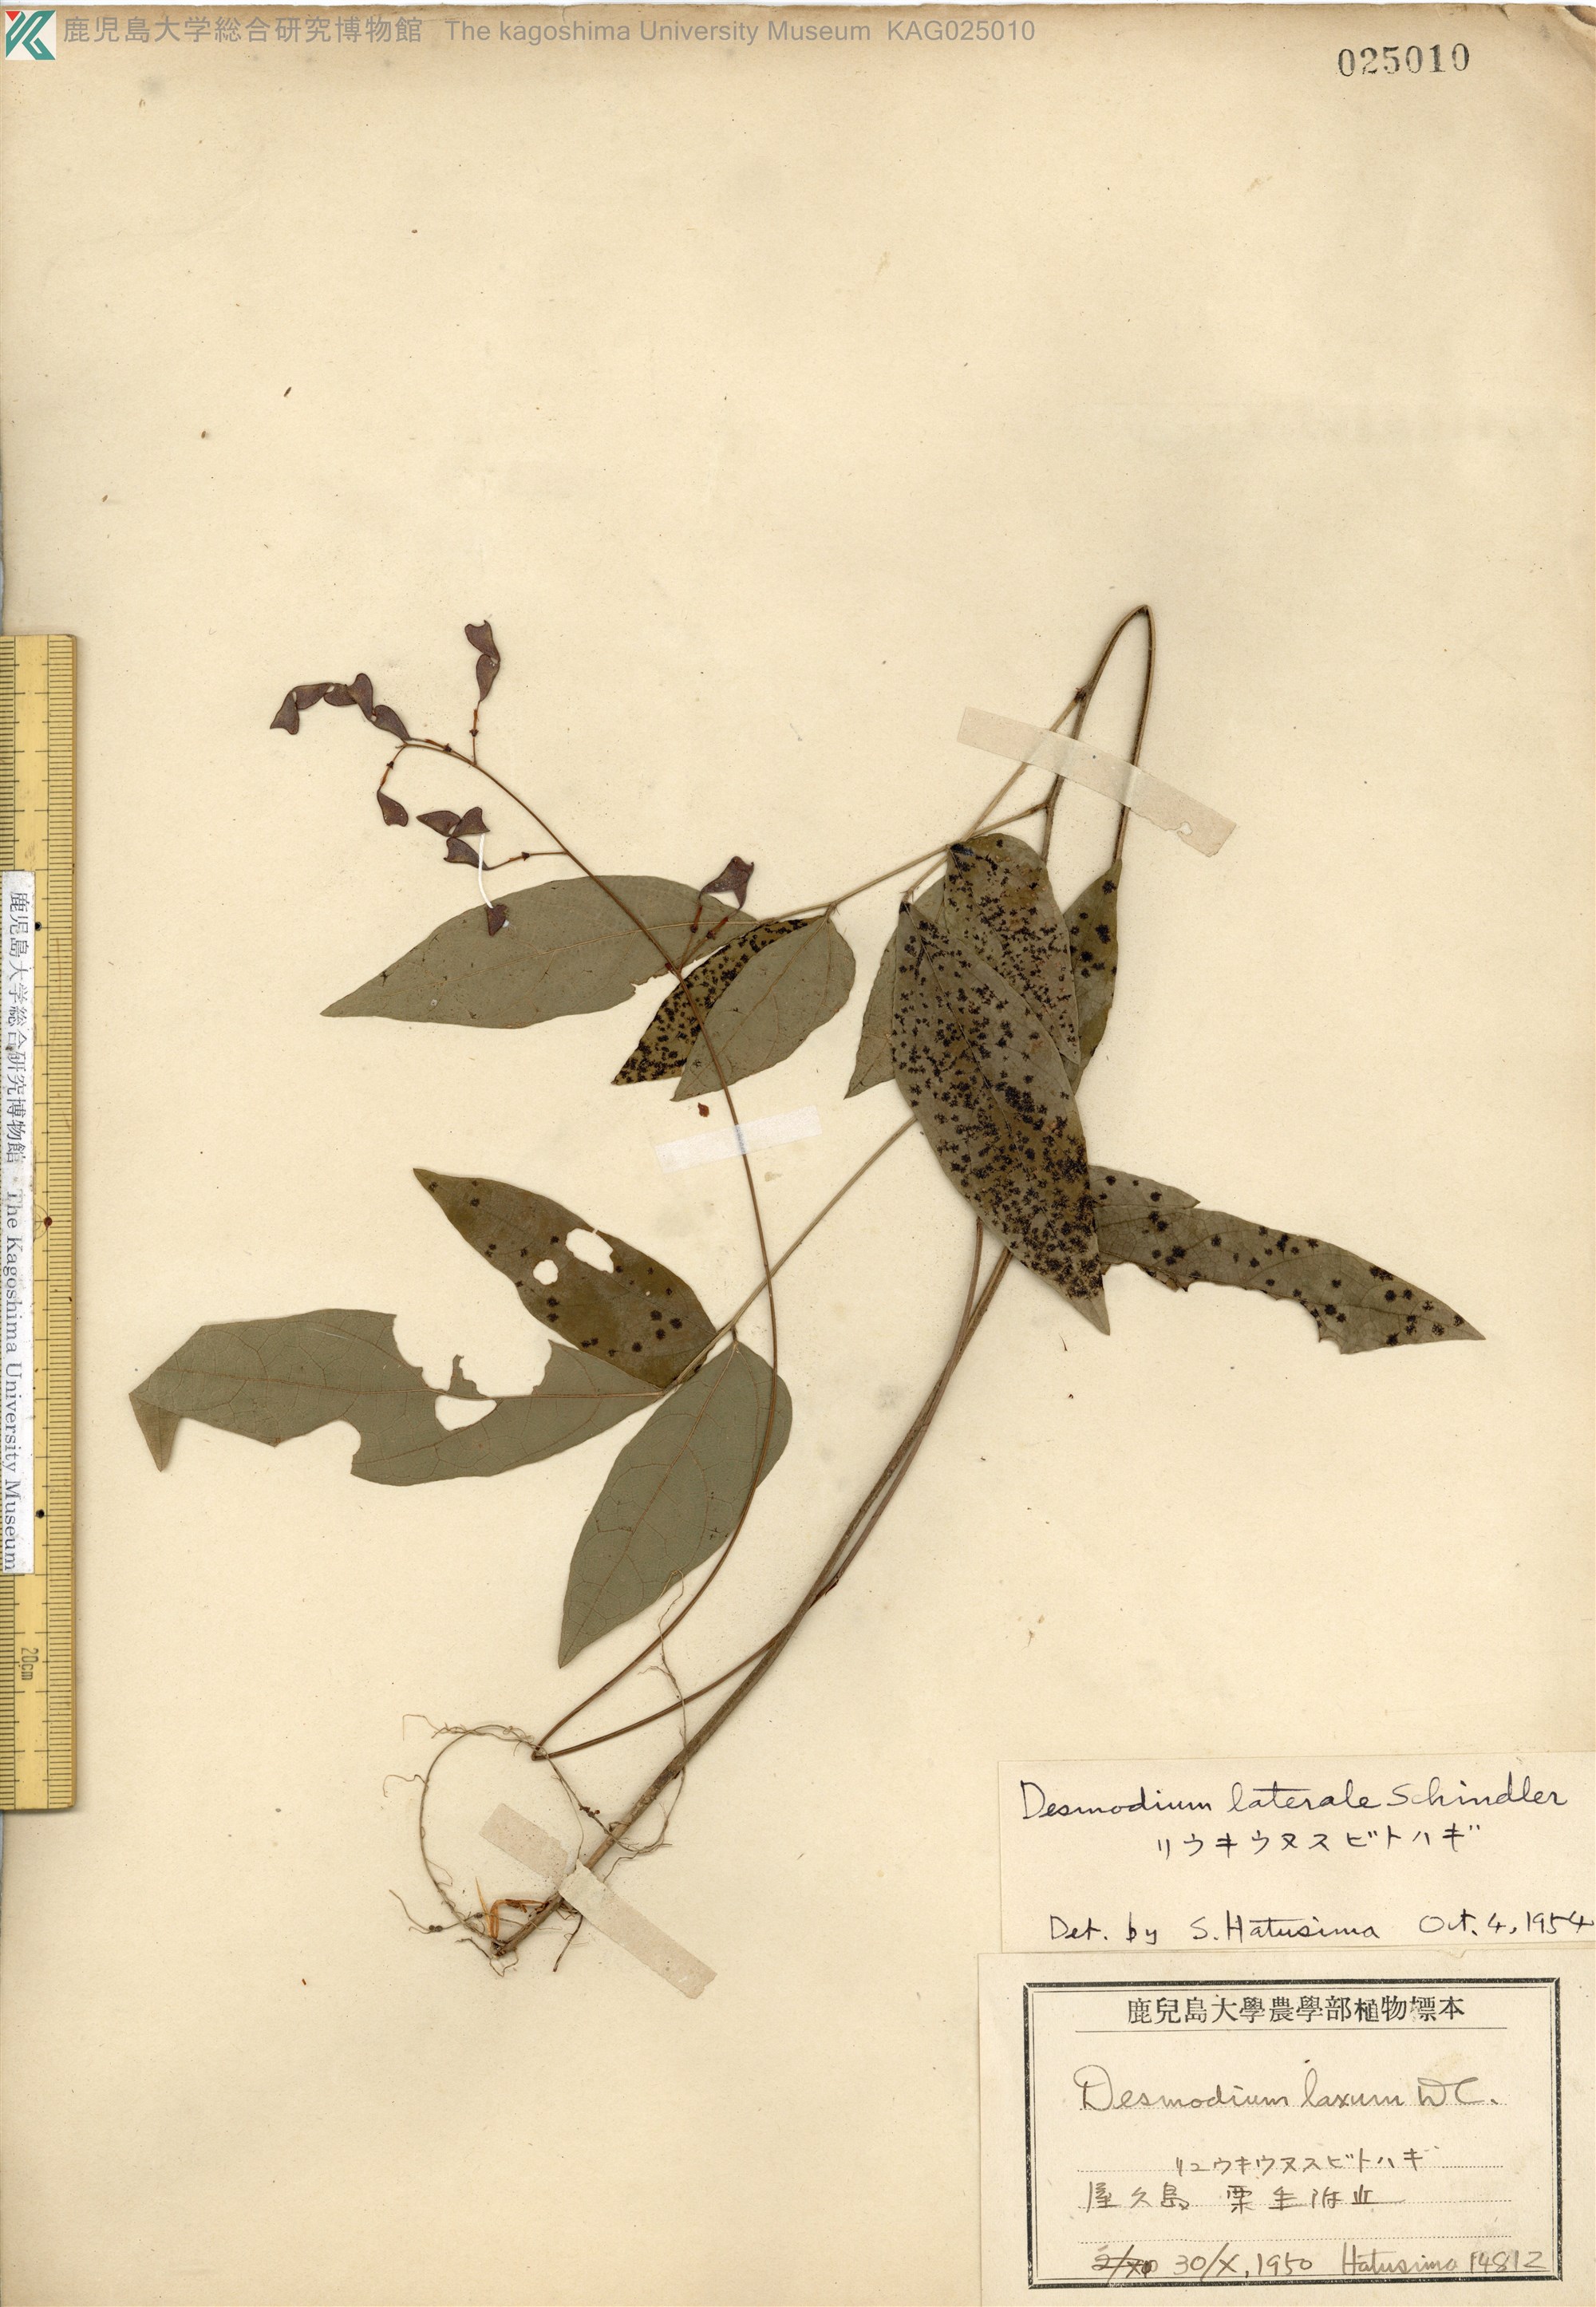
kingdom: Plantae
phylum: Tracheophyta
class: Magnoliopsida
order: Fabales
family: Fabaceae
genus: Hylodesmum
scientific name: Hylodesmum laterale
